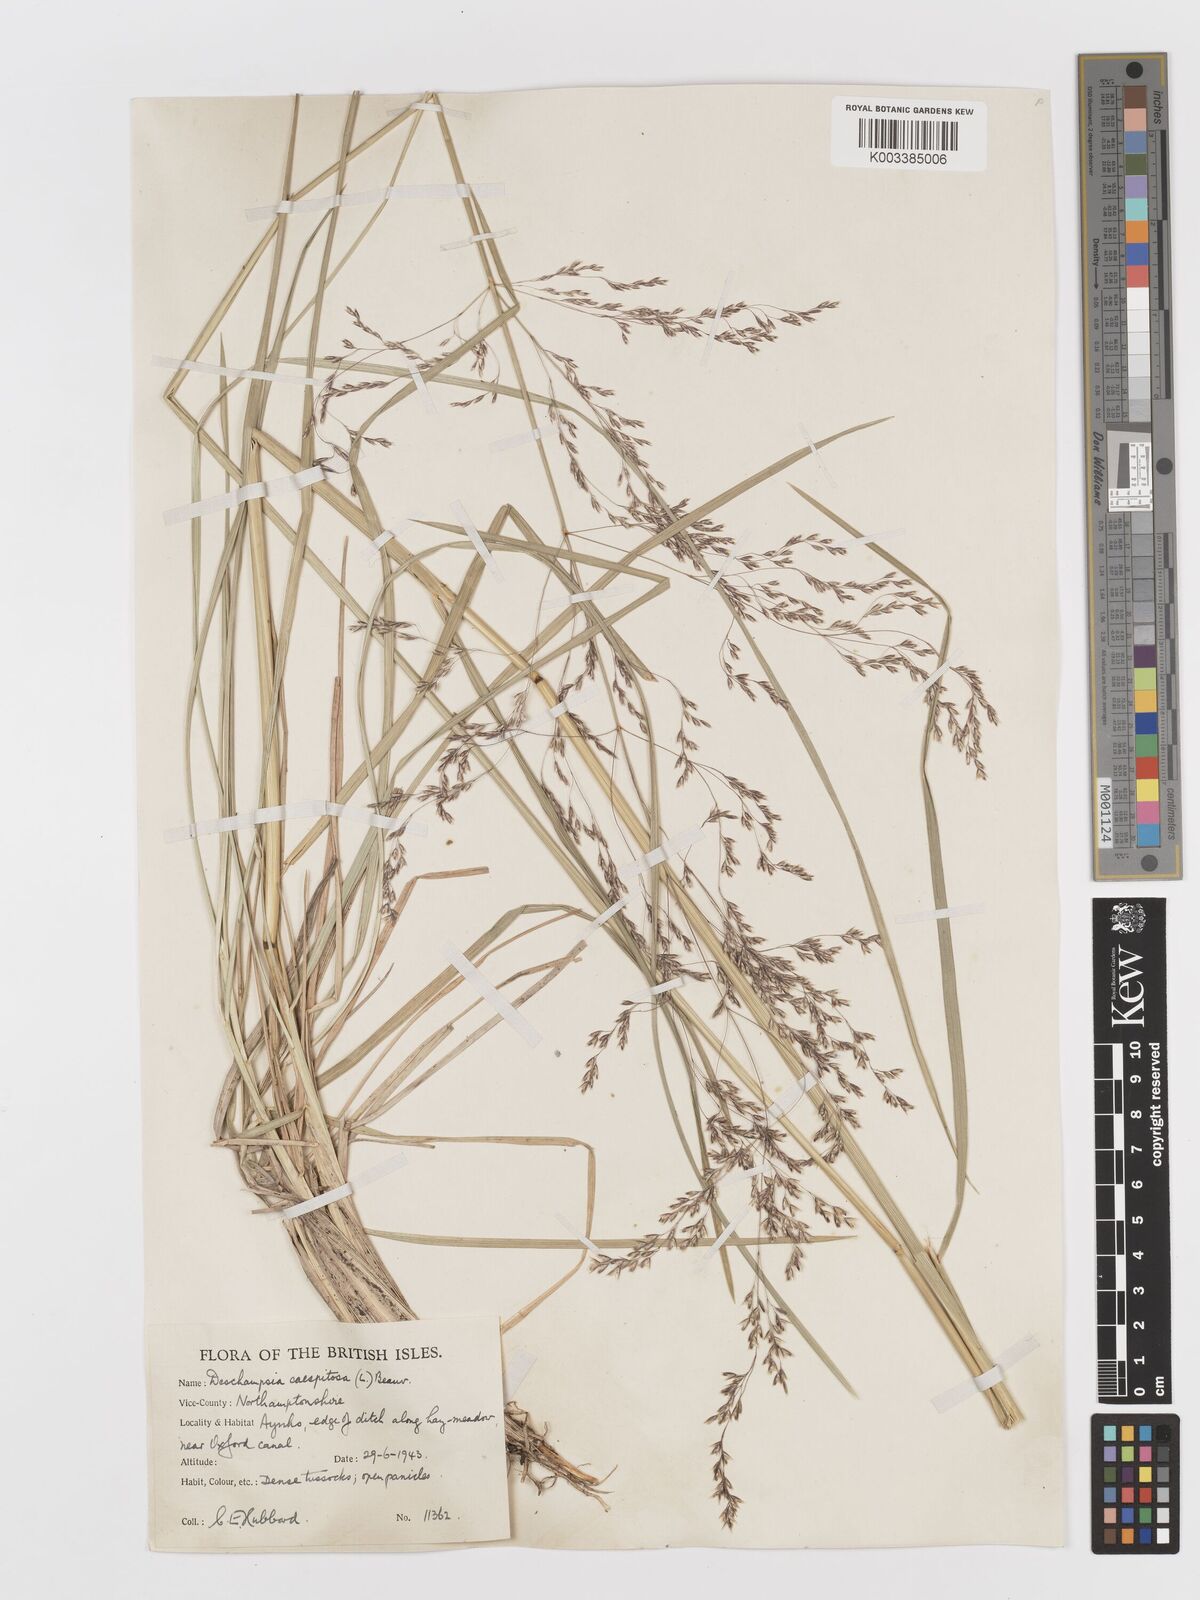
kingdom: Plantae
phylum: Tracheophyta
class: Liliopsida
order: Poales
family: Poaceae
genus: Deschampsia
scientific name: Deschampsia cespitosa
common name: Tufted hair-grass
